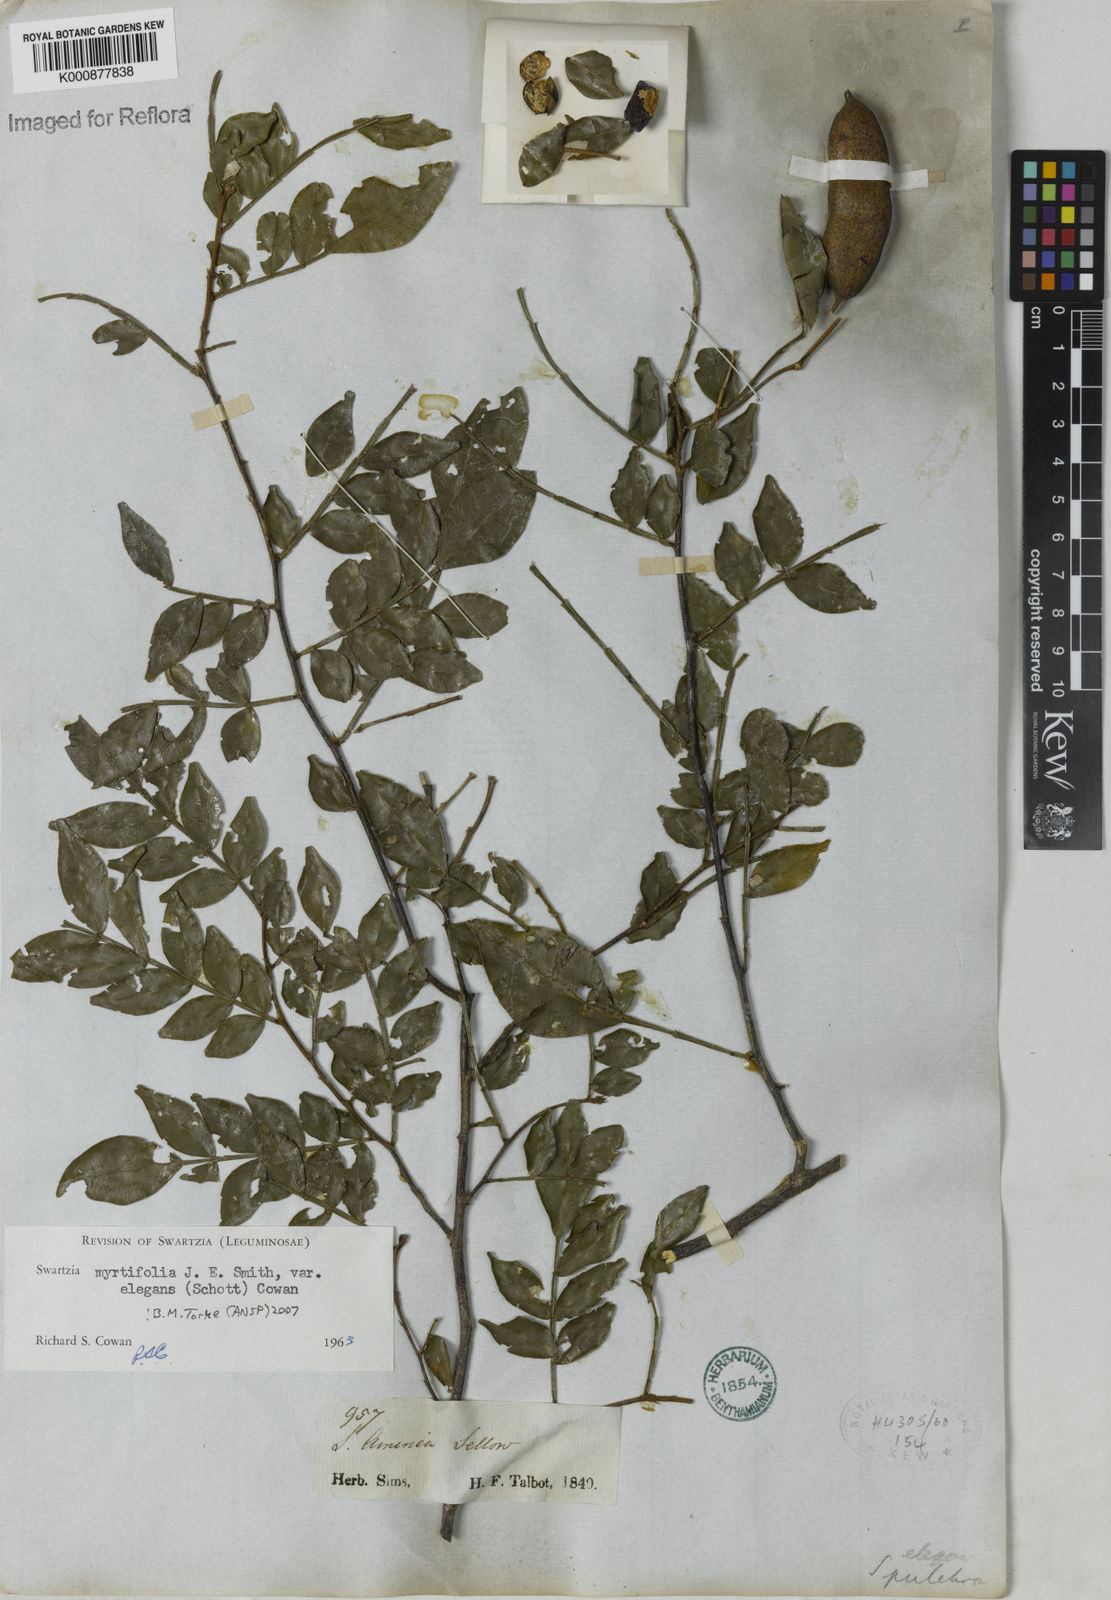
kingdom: Plantae
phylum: Tracheophyta
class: Magnoliopsida
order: Fabales
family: Fabaceae
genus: Swartzia
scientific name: Swartzia myrtifolia
